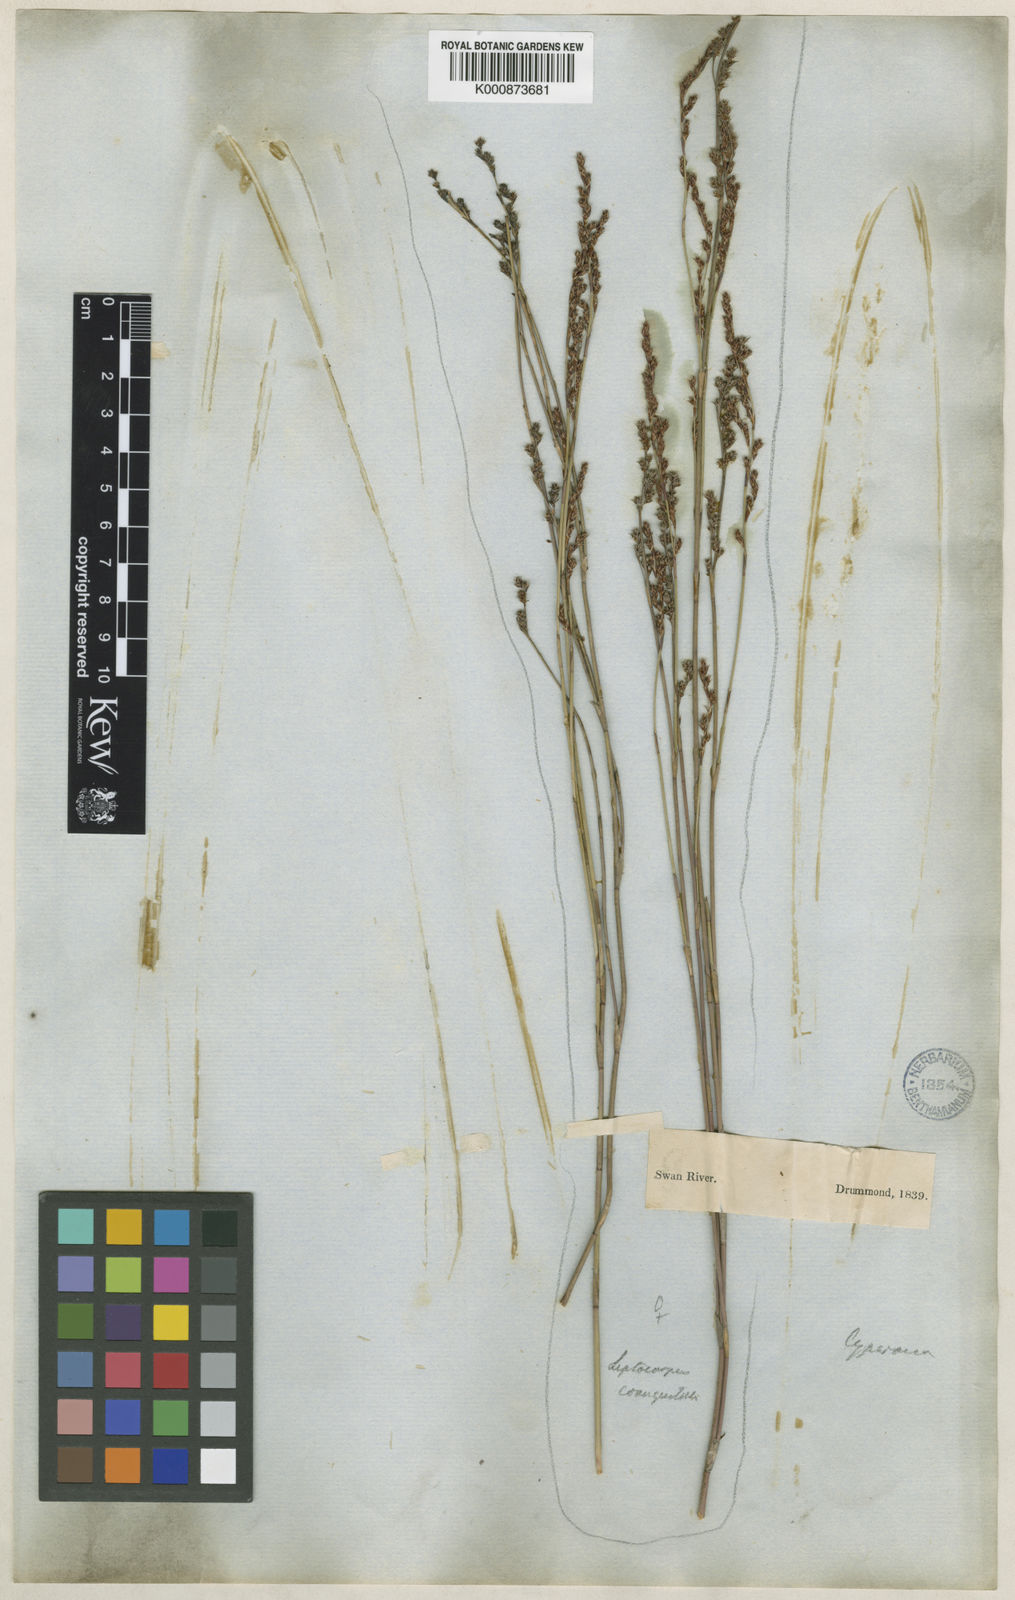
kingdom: Plantae
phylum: Tracheophyta
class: Liliopsida
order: Poales
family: Restionaceae
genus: Leptocarpus
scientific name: Leptocarpus coangustatus
